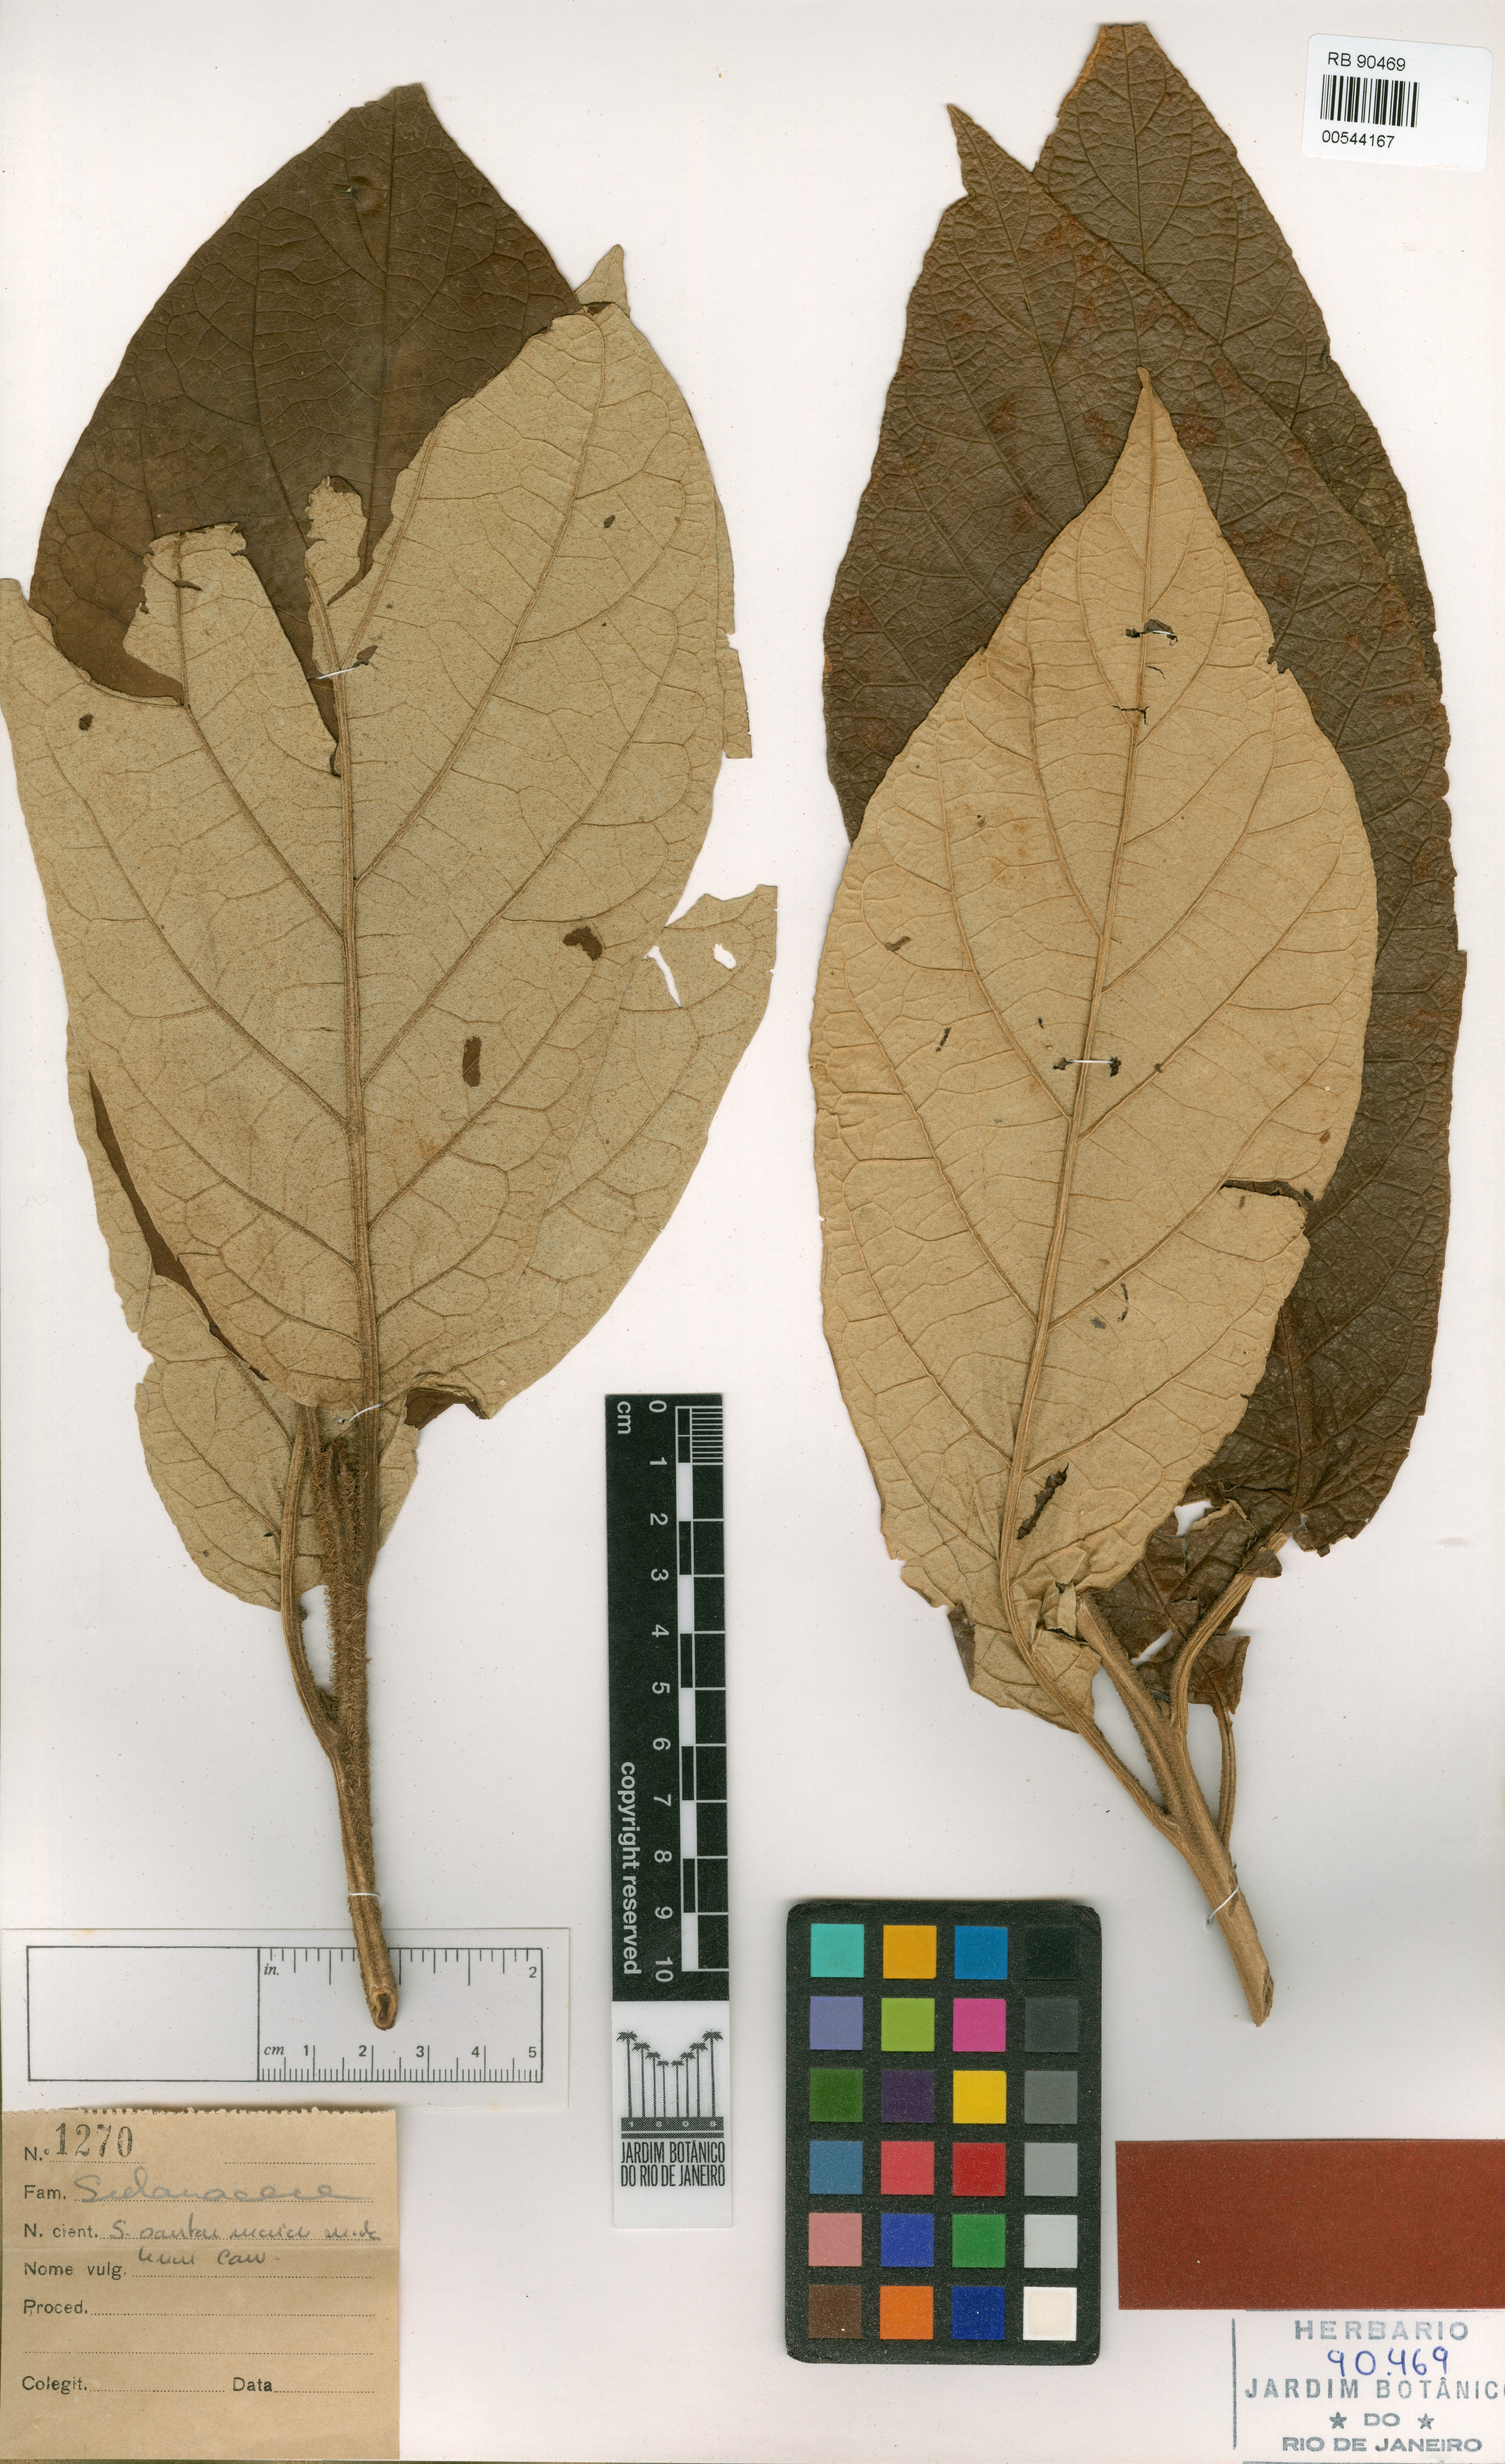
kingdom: Plantae
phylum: Tracheophyta
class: Magnoliopsida
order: Solanales
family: Solanaceae
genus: Solanum
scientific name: Solanum pereirae
